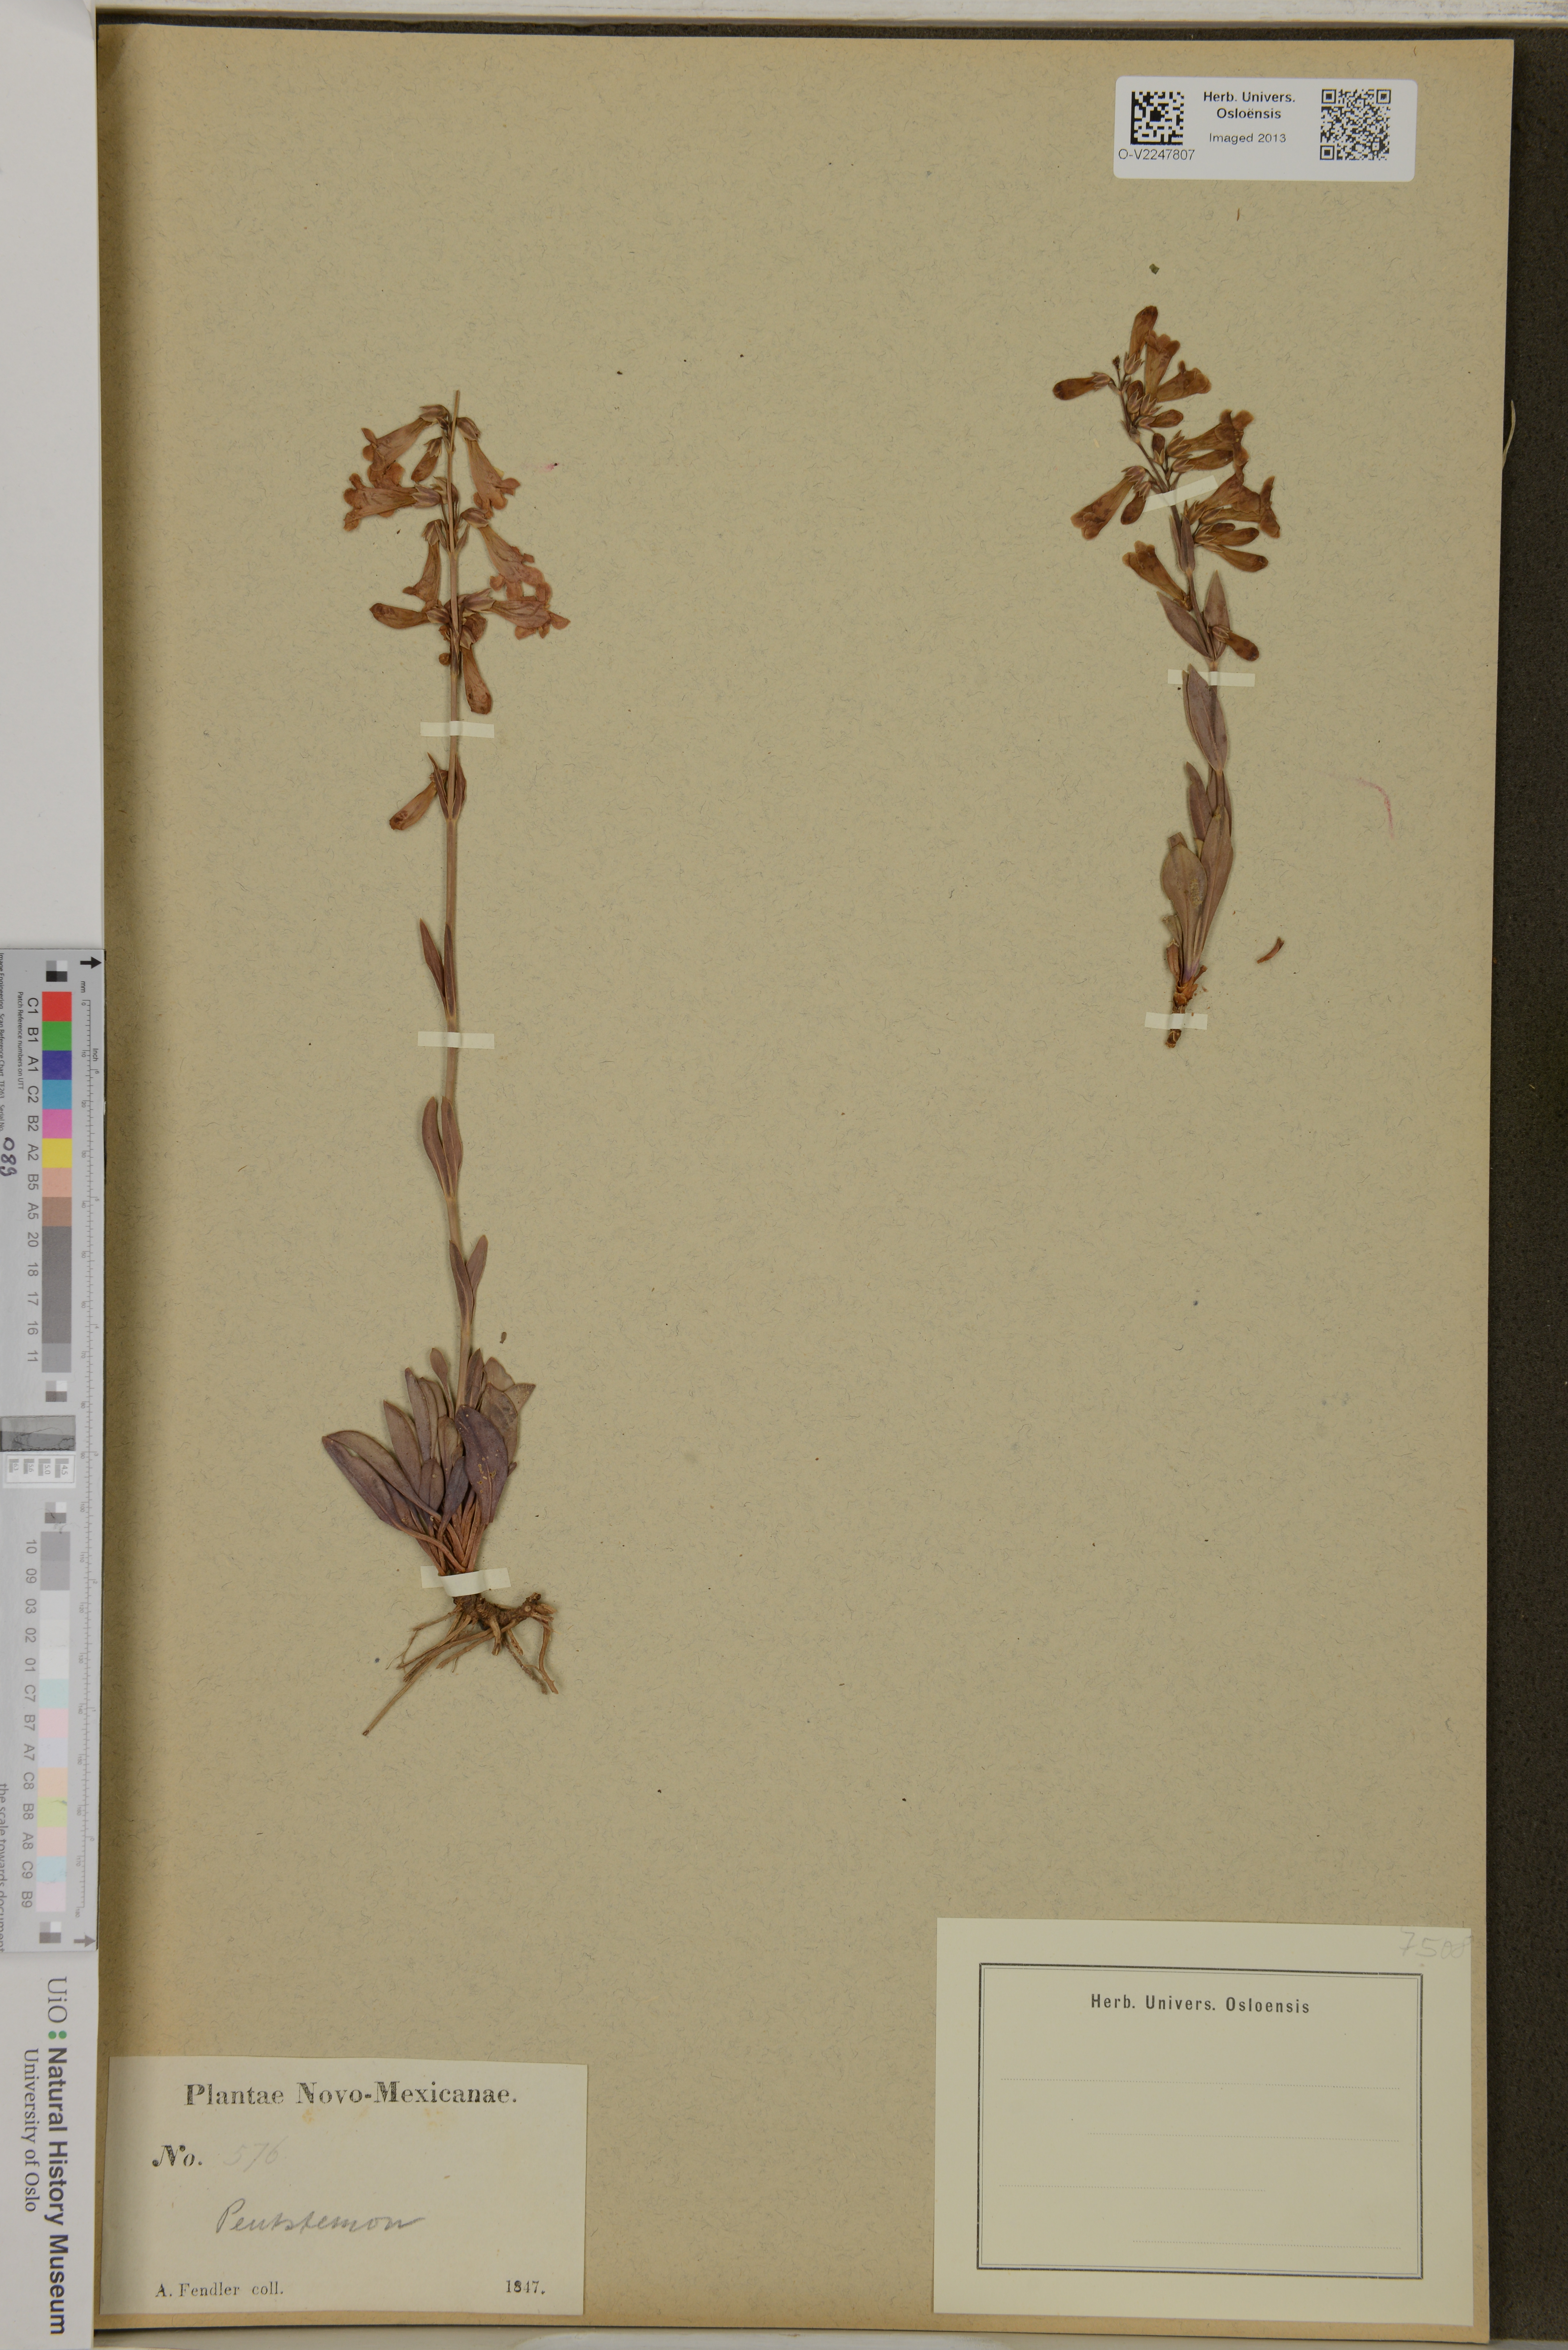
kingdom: Plantae
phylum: Tracheophyta
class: Magnoliopsida
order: Lamiales
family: Plantaginaceae
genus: Penstemon
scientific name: Penstemon
